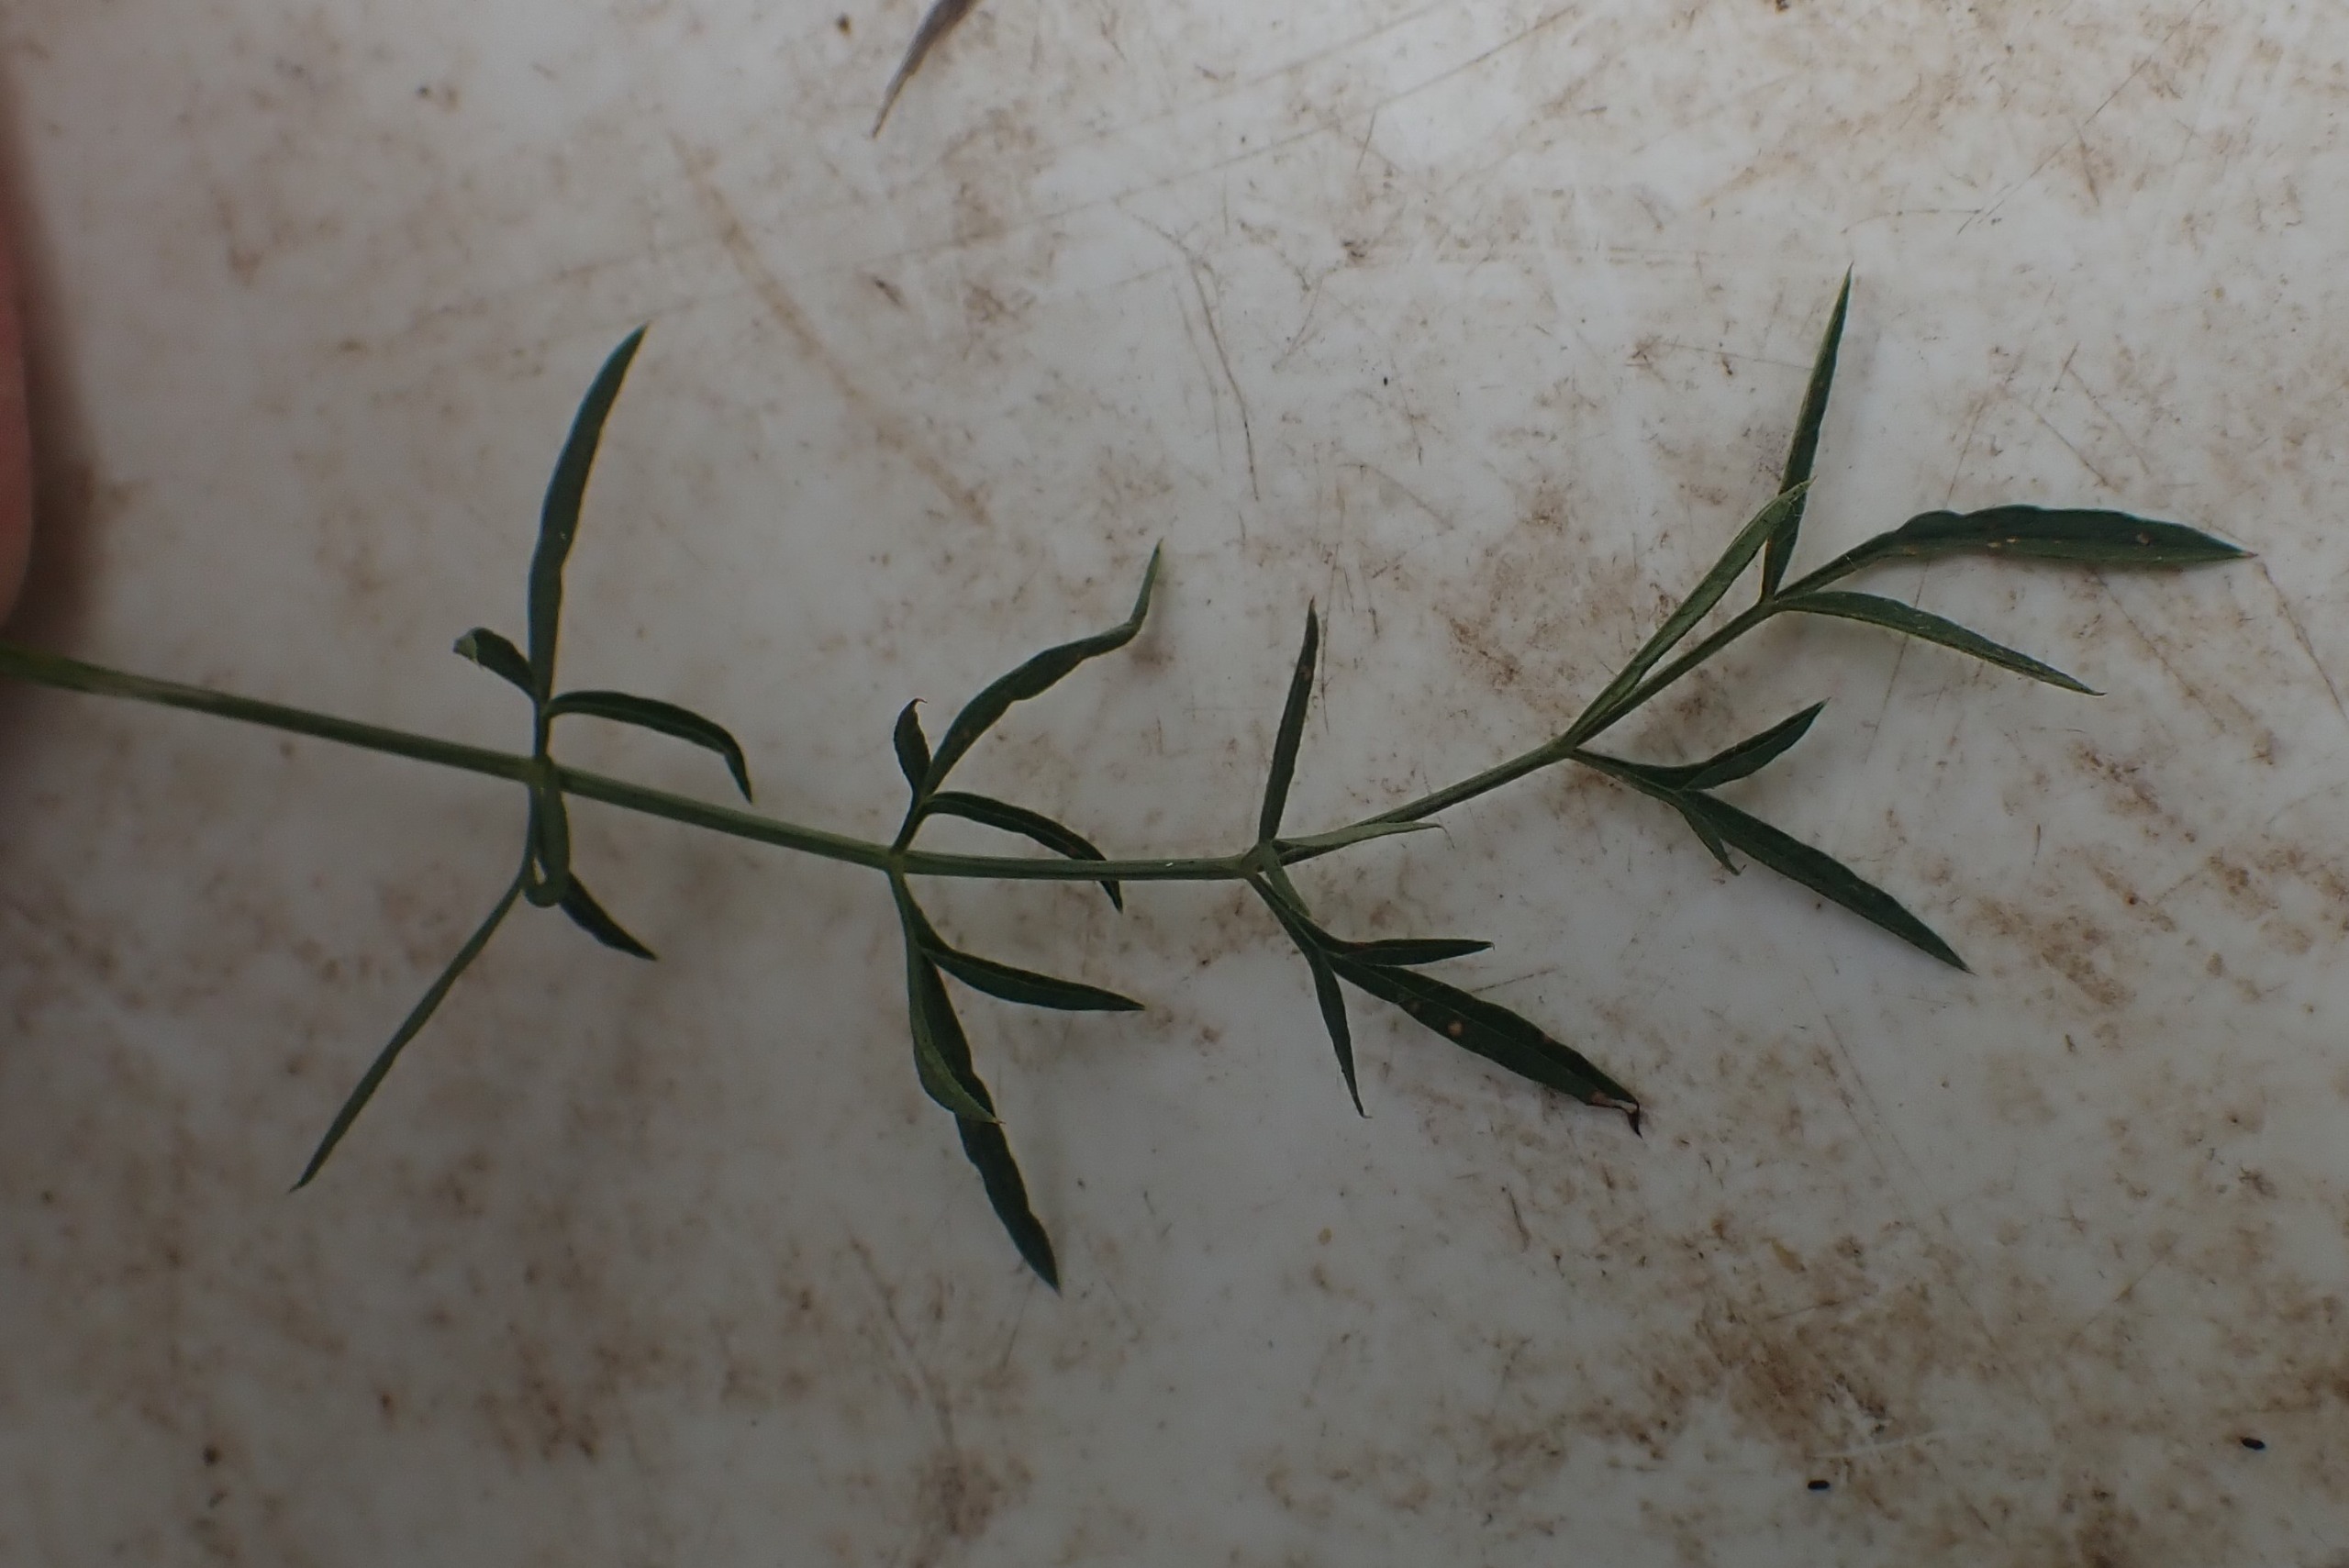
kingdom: Plantae
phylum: Tracheophyta
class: Magnoliopsida
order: Apiales
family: Apiaceae
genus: Pimpinella
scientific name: Pimpinella saxifraga
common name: Almindelig pimpinelle
